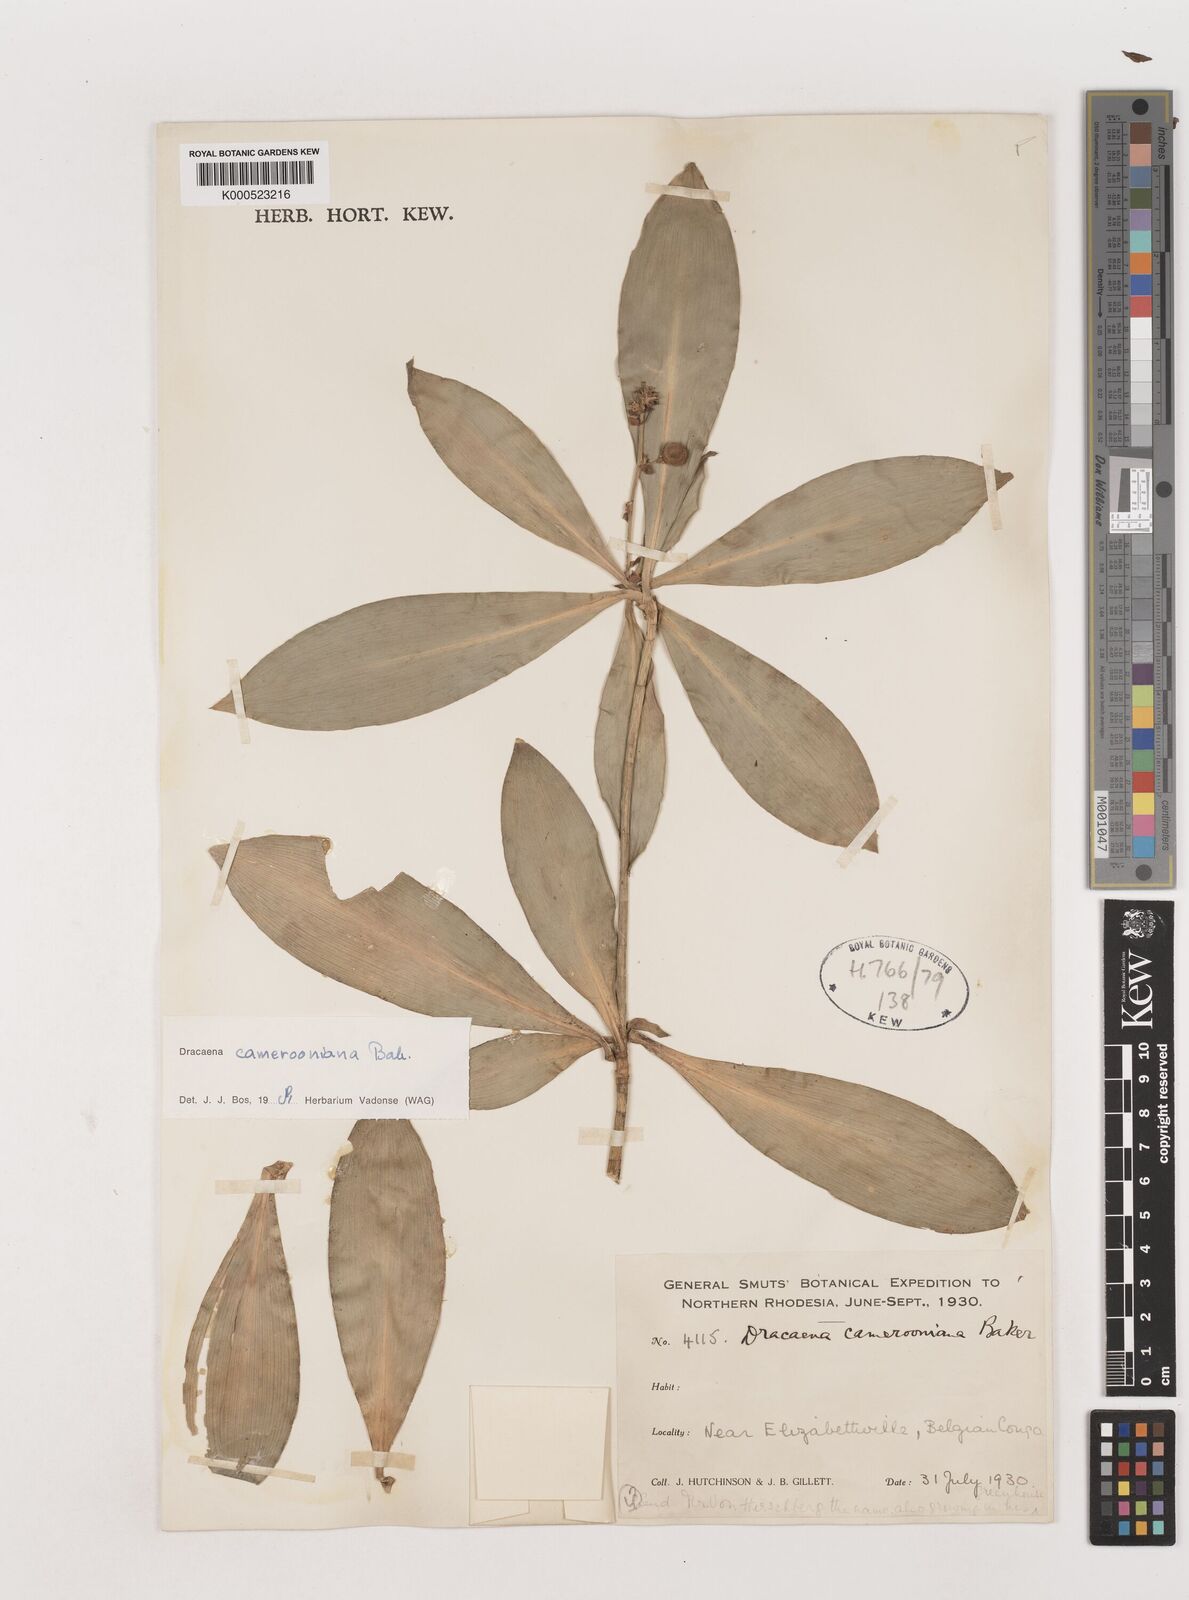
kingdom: Plantae
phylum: Tracheophyta
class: Liliopsida
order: Asparagales
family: Asparagaceae
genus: Dracaena
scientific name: Dracaena camerooniana
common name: Dragon tree
